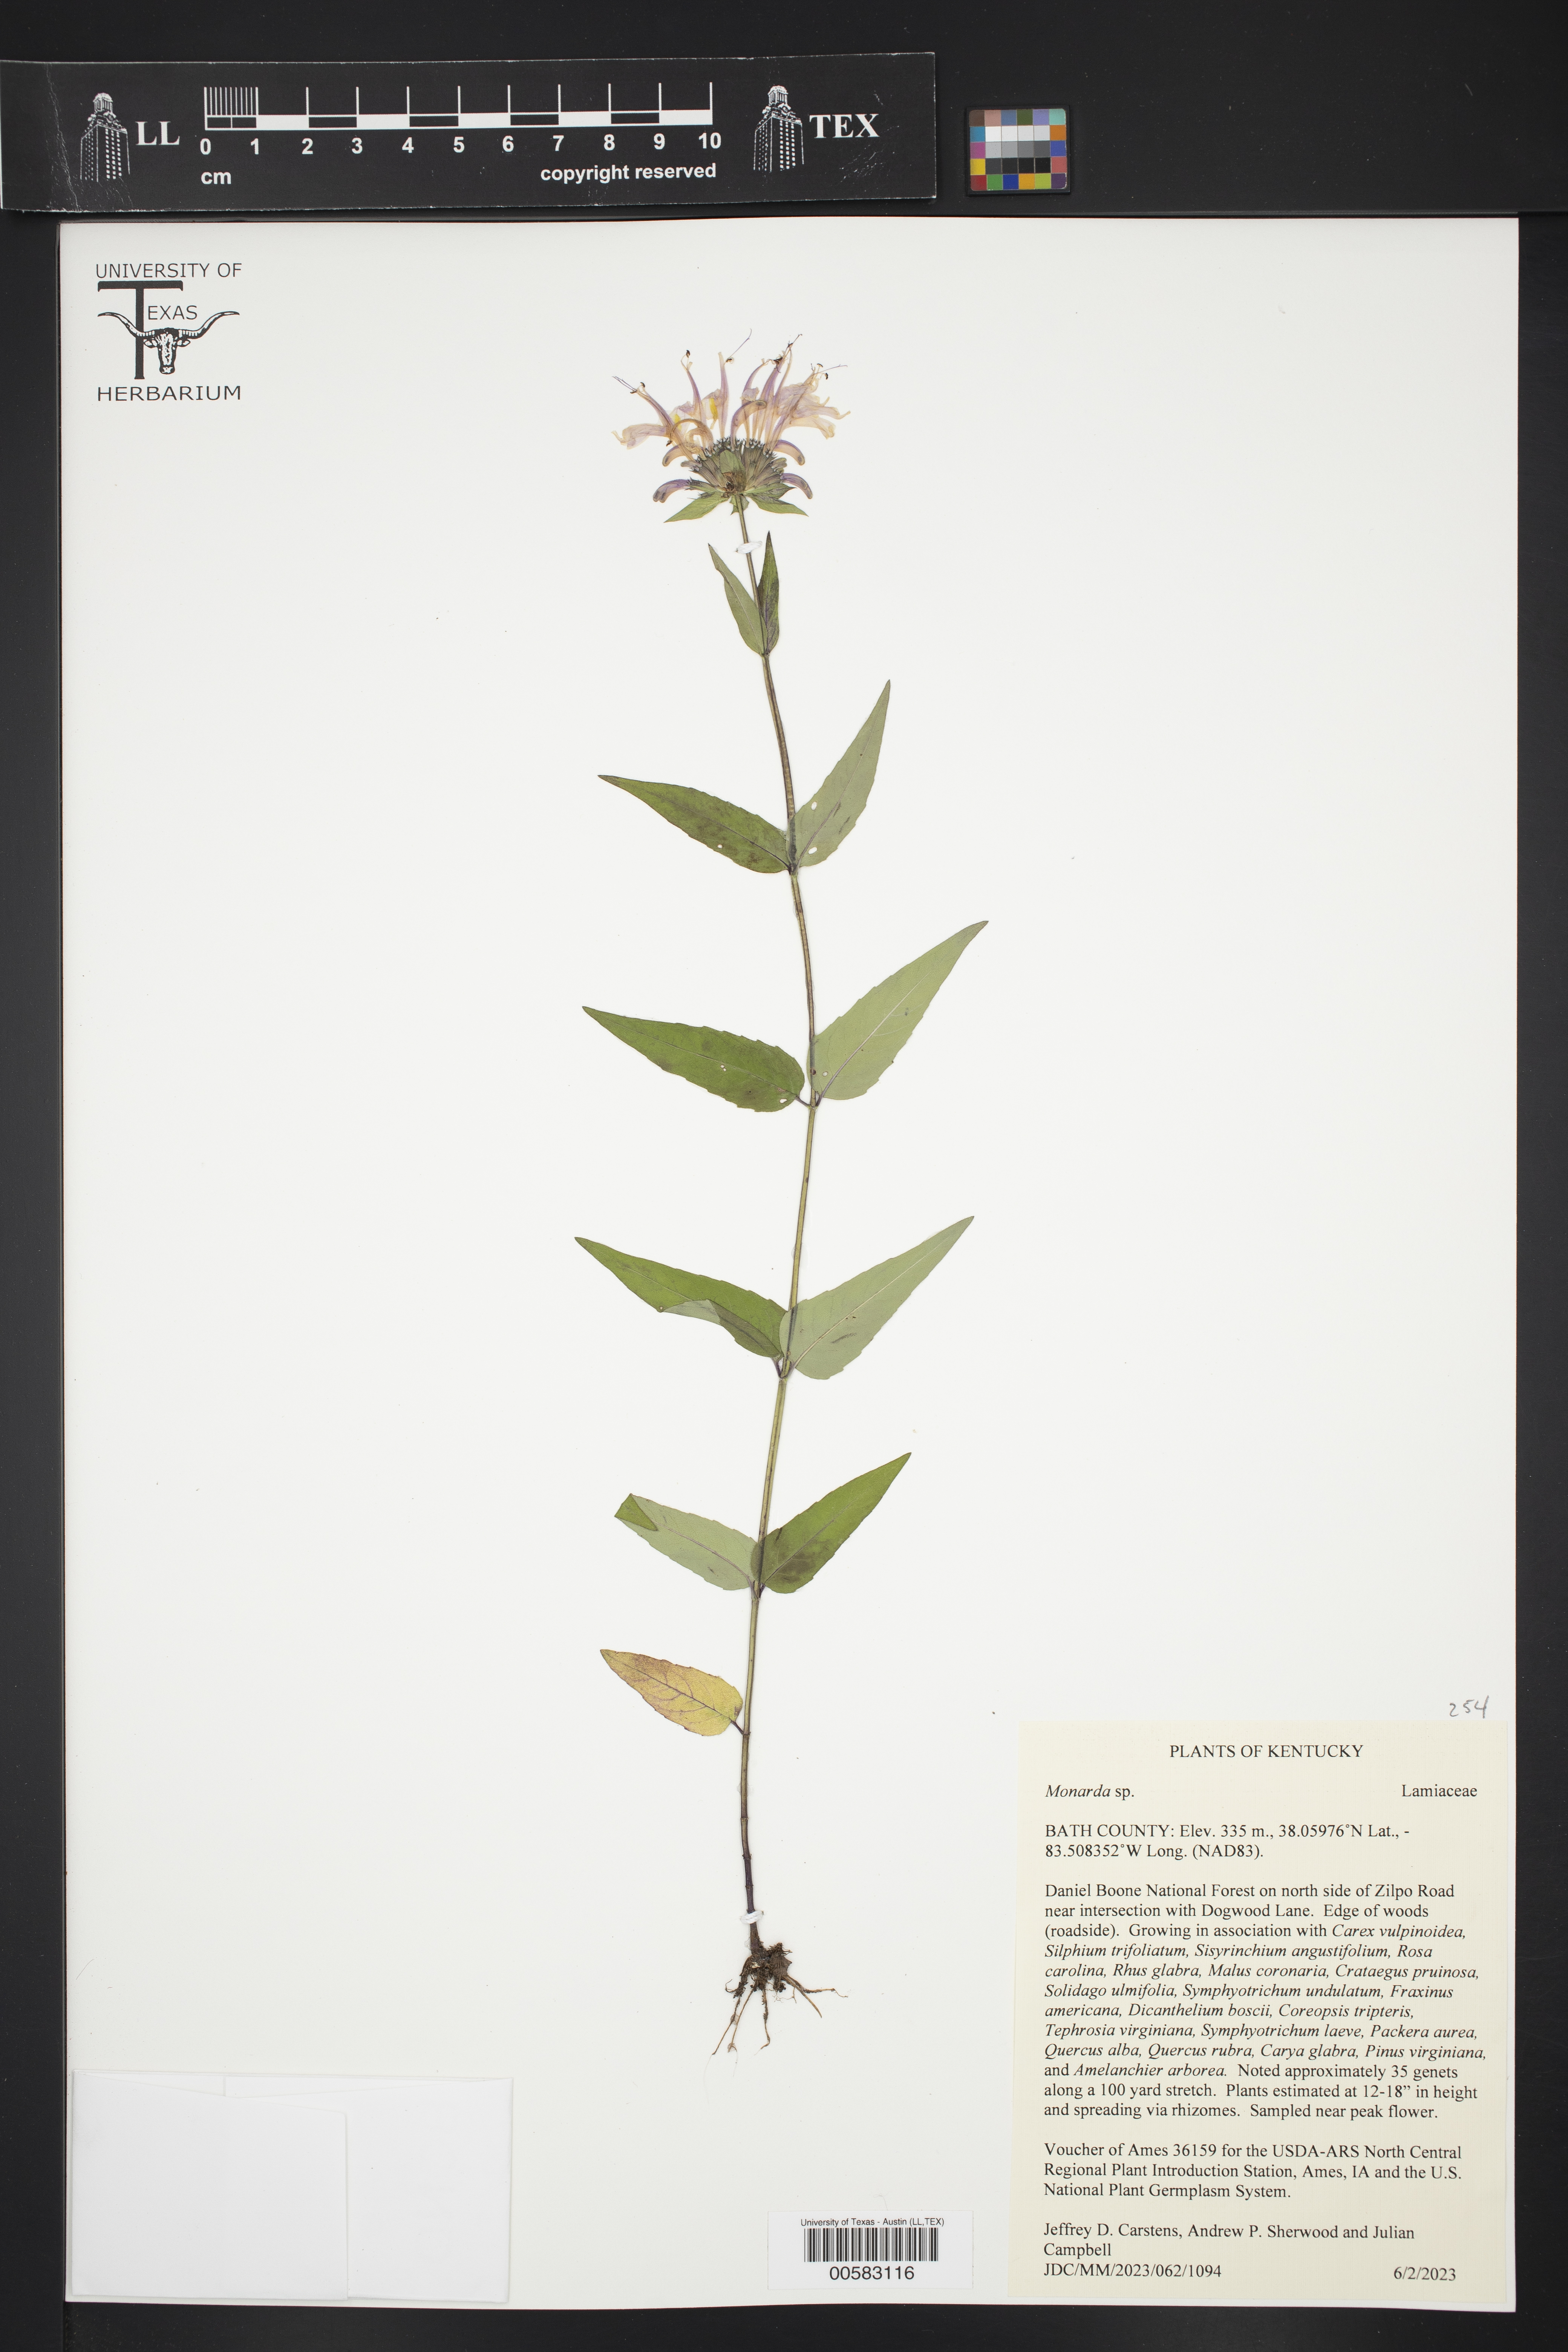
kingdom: Plantae
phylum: Tracheophyta
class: Magnoliopsida
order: Lamiales
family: Lamiaceae
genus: Monarda
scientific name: Monarda
